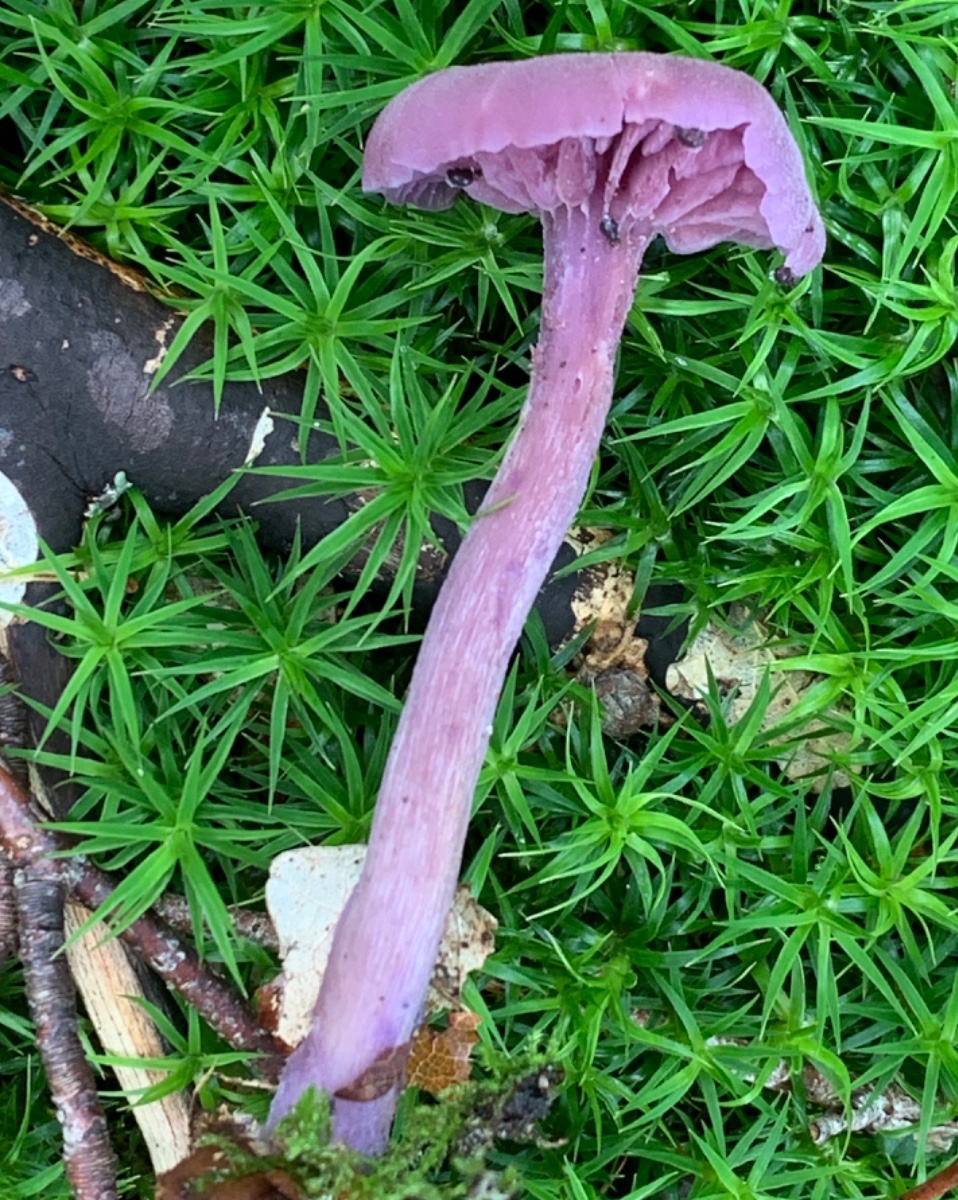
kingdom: Fungi
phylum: Basidiomycota
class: Agaricomycetes
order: Agaricales
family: Hydnangiaceae
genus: Laccaria
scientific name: Laccaria amethystina
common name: violet ametysthat
